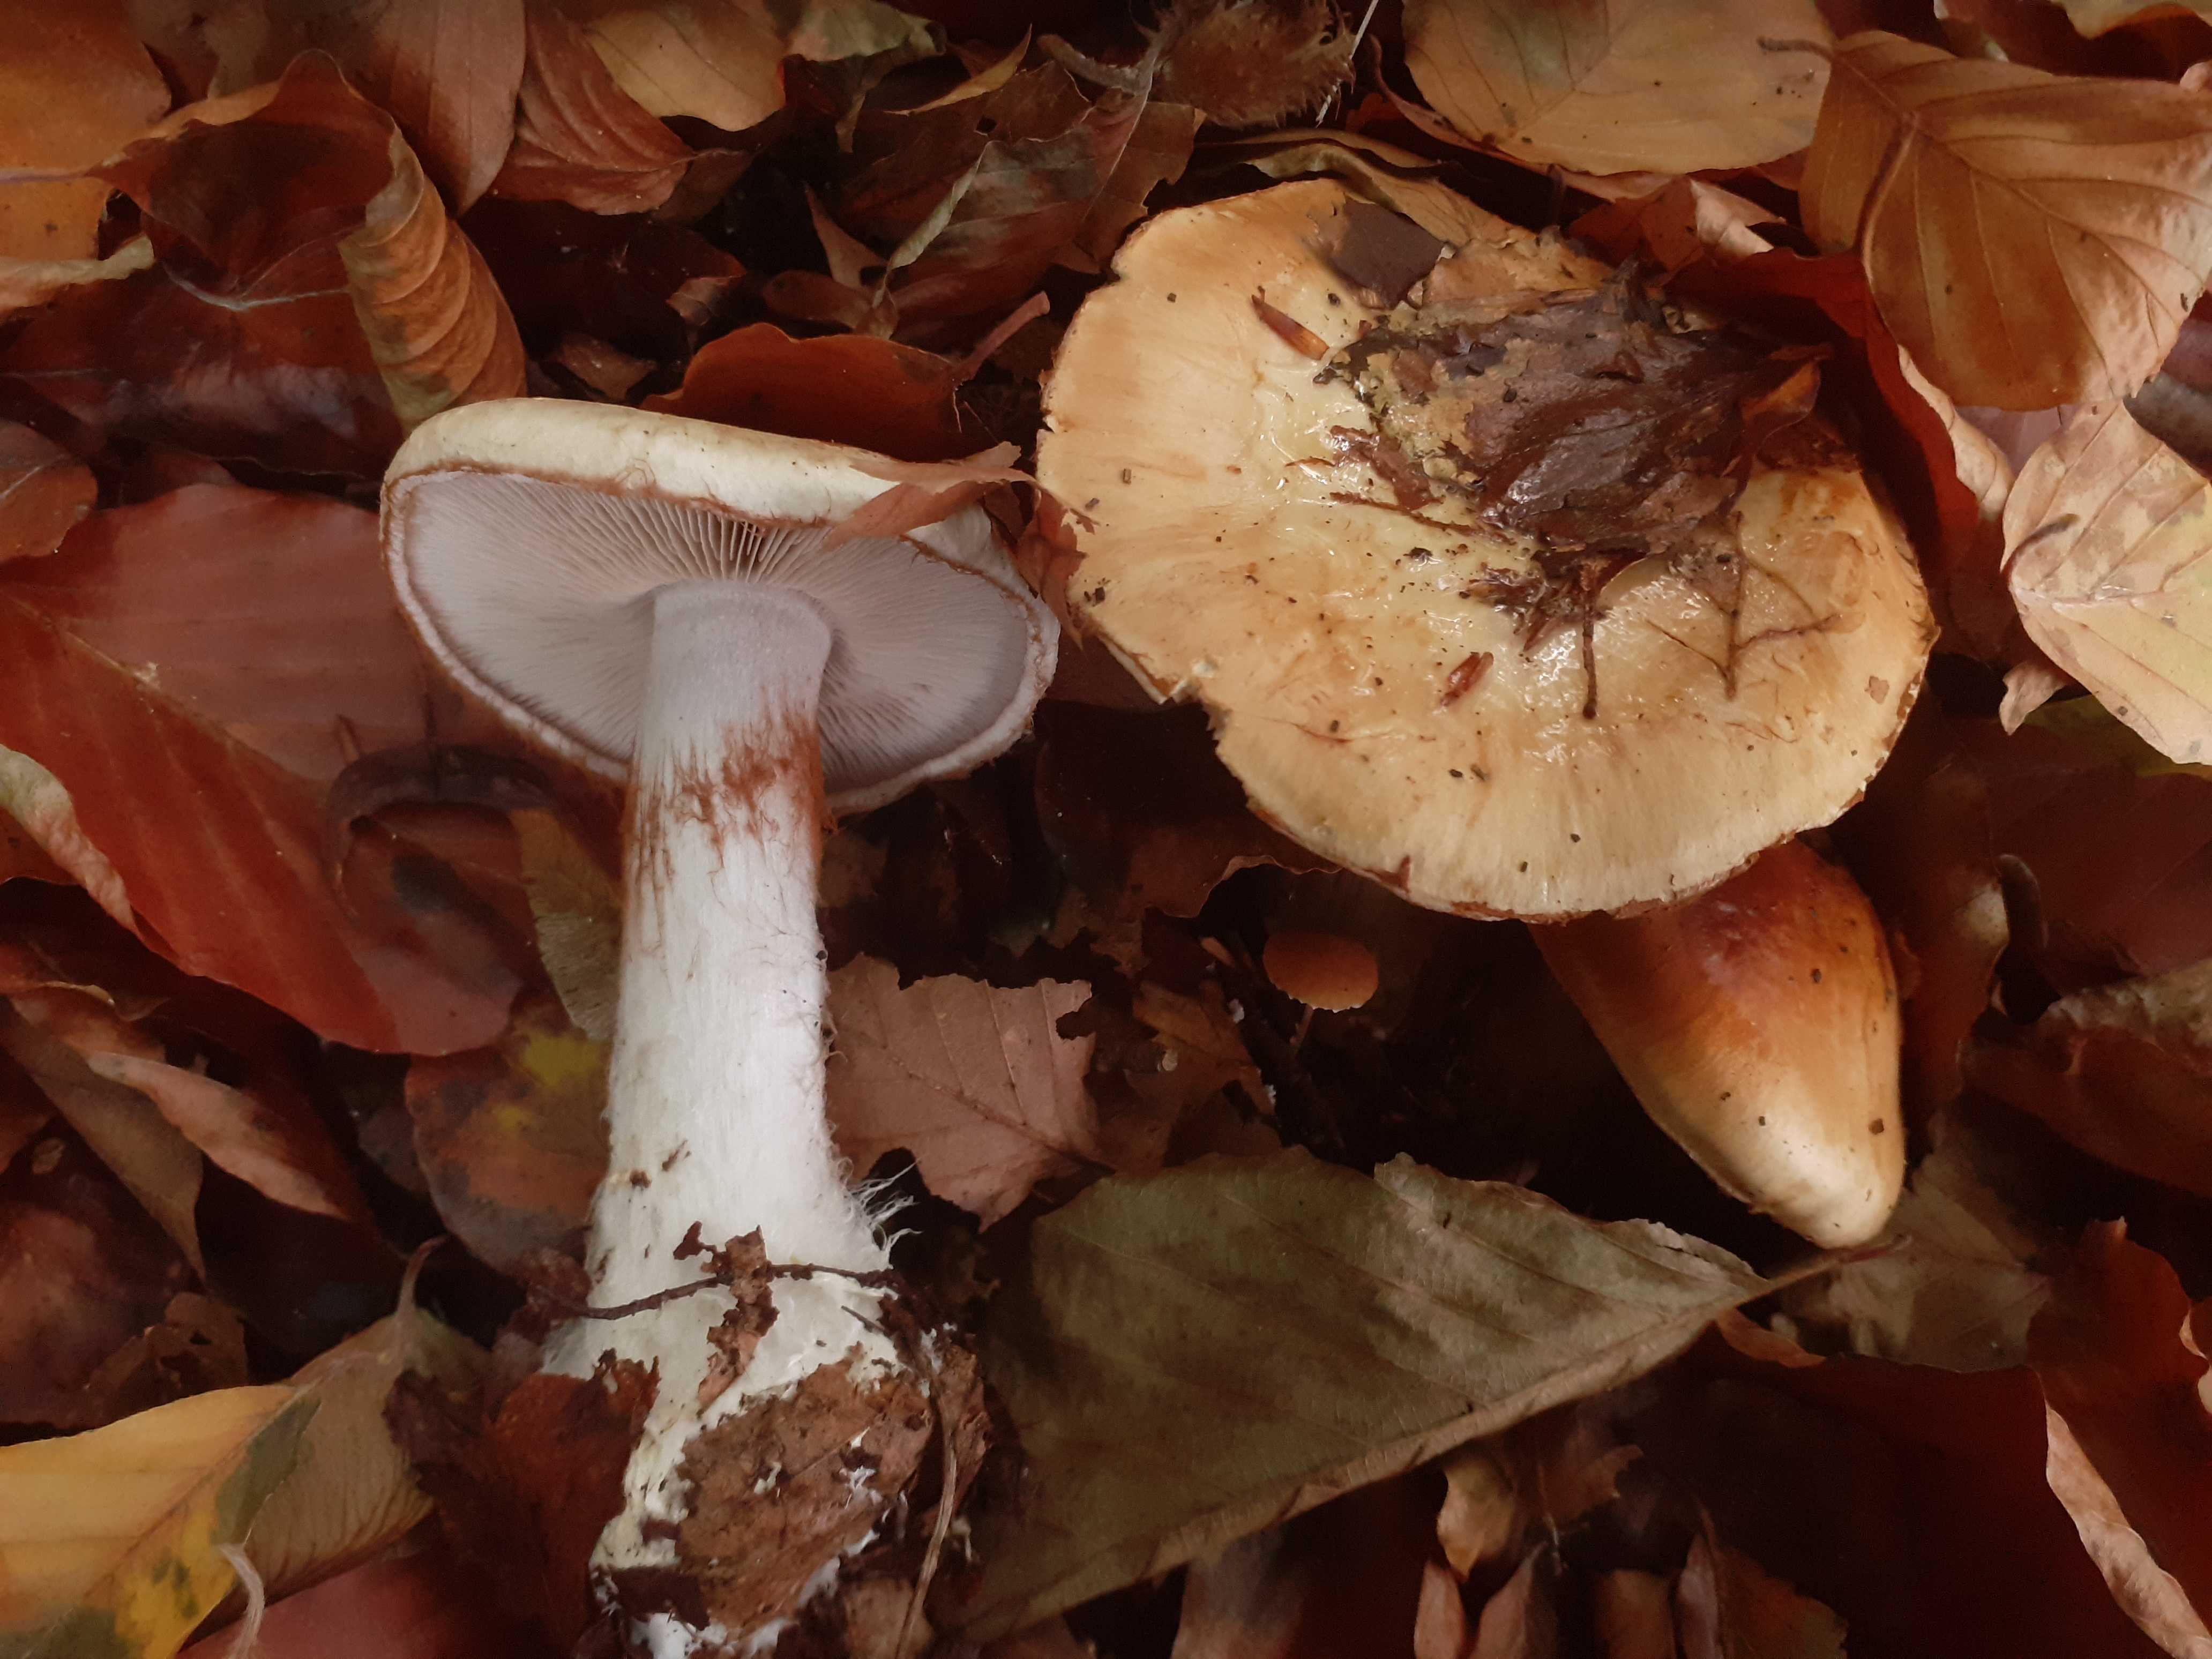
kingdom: Fungi
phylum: Basidiomycota
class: Agaricomycetes
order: Agaricales
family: Cortinariaceae
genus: Cortinarius
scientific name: Cortinarius anserinus
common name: bøge-slørhat
